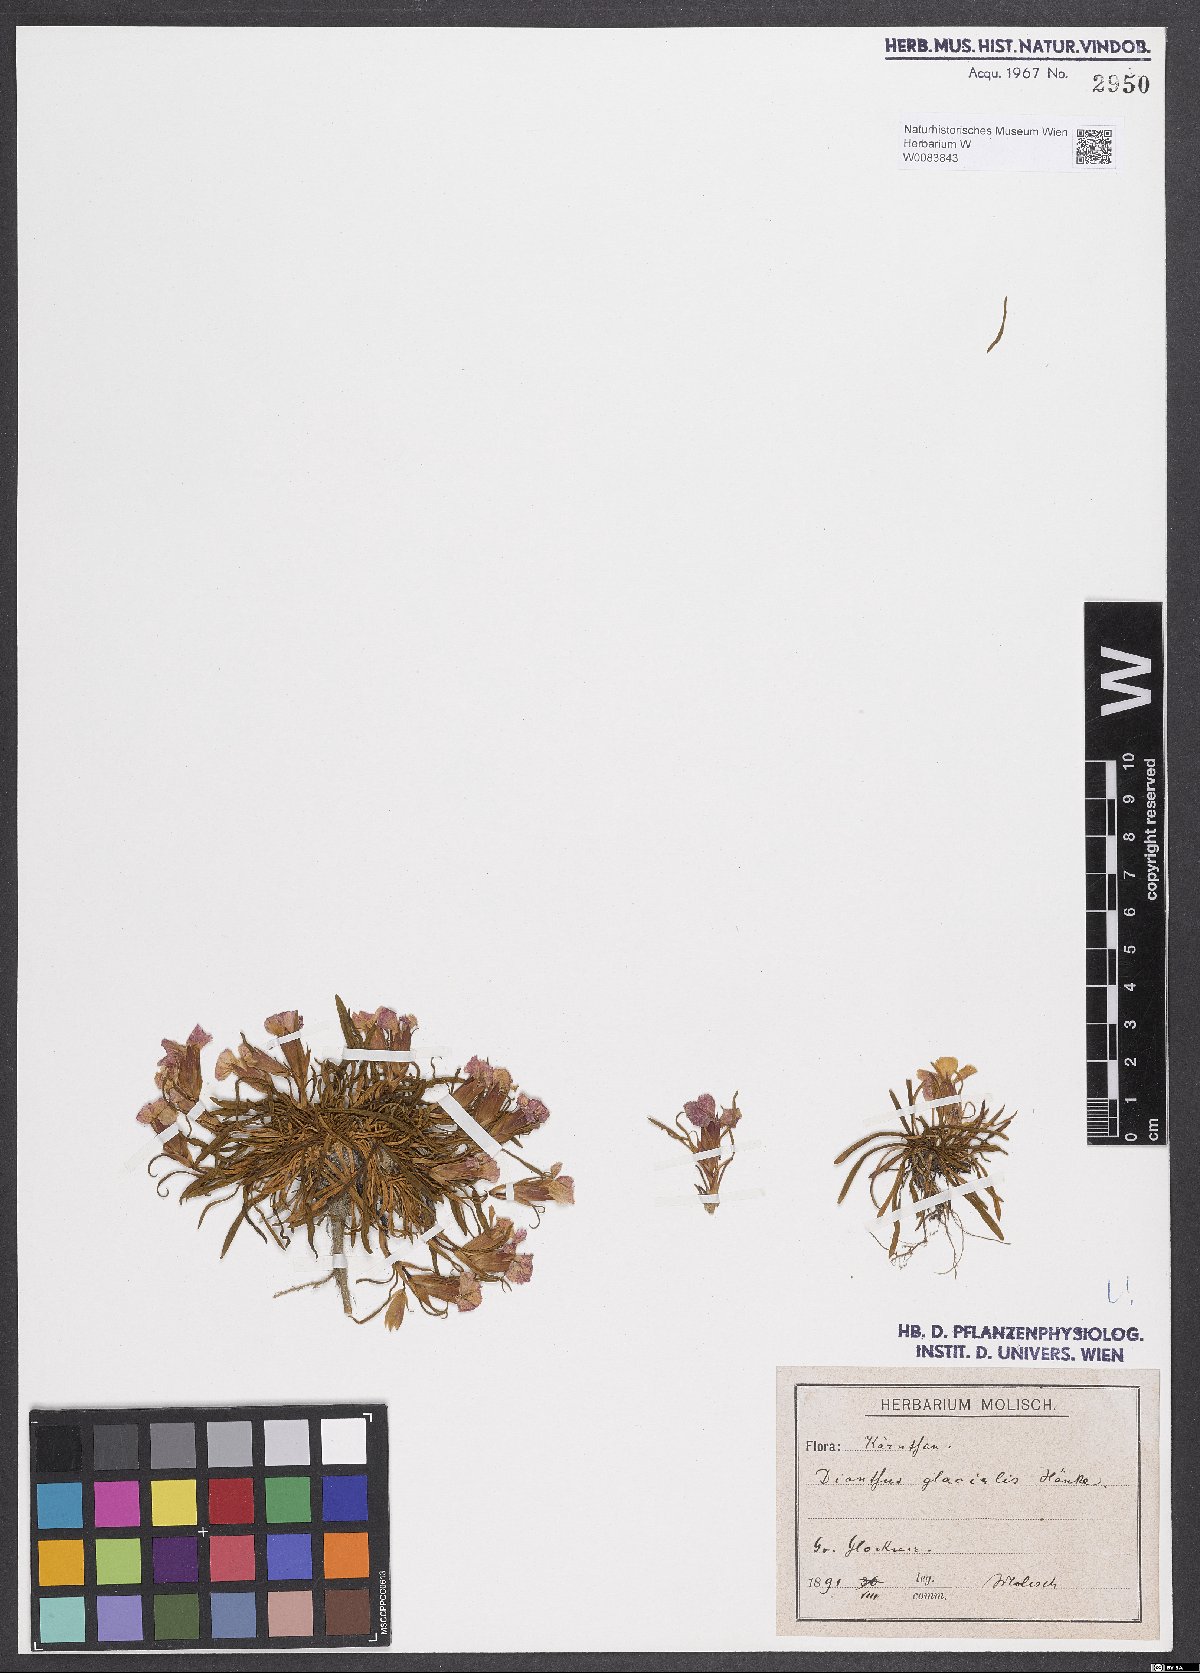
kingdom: Plantae
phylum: Tracheophyta
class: Magnoliopsida
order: Caryophyllales
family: Caryophyllaceae
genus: Dianthus
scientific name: Dianthus glacialis
